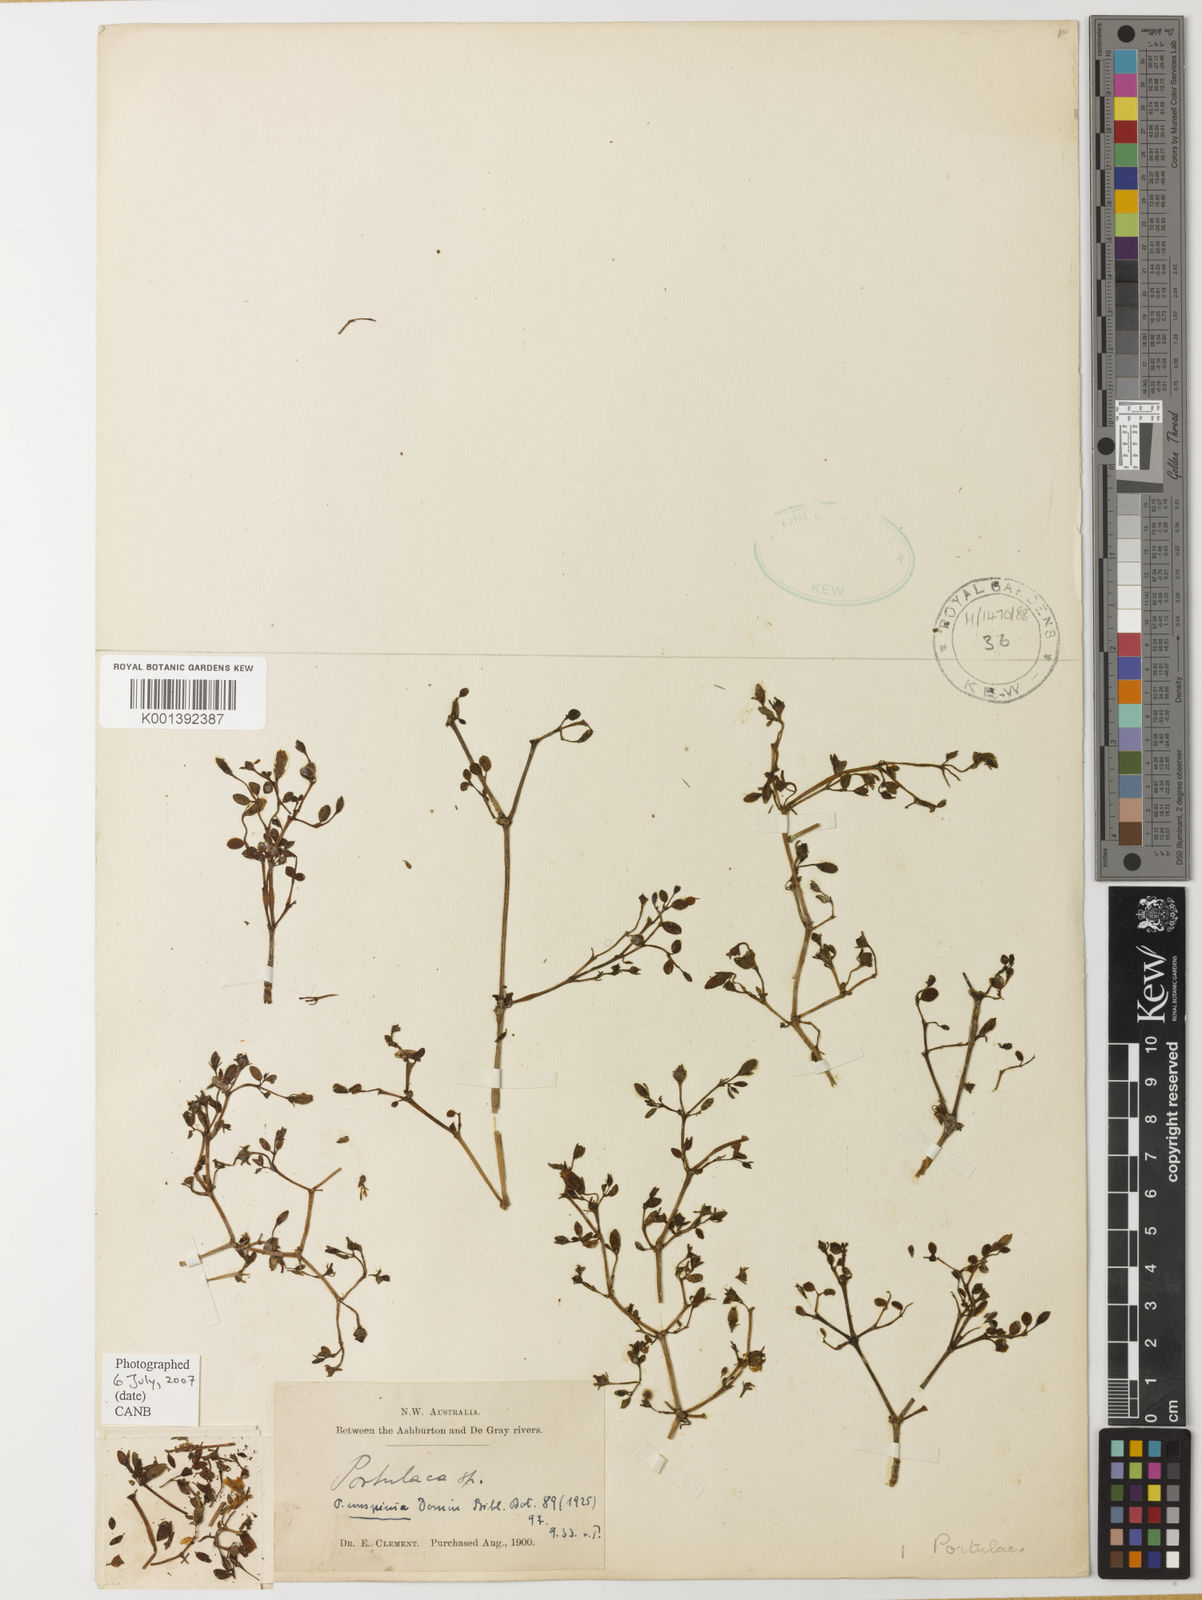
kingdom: Plantae
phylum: Tracheophyta
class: Magnoliopsida
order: Caryophyllales
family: Portulacaceae
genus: Portulaca
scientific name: Portulaca
